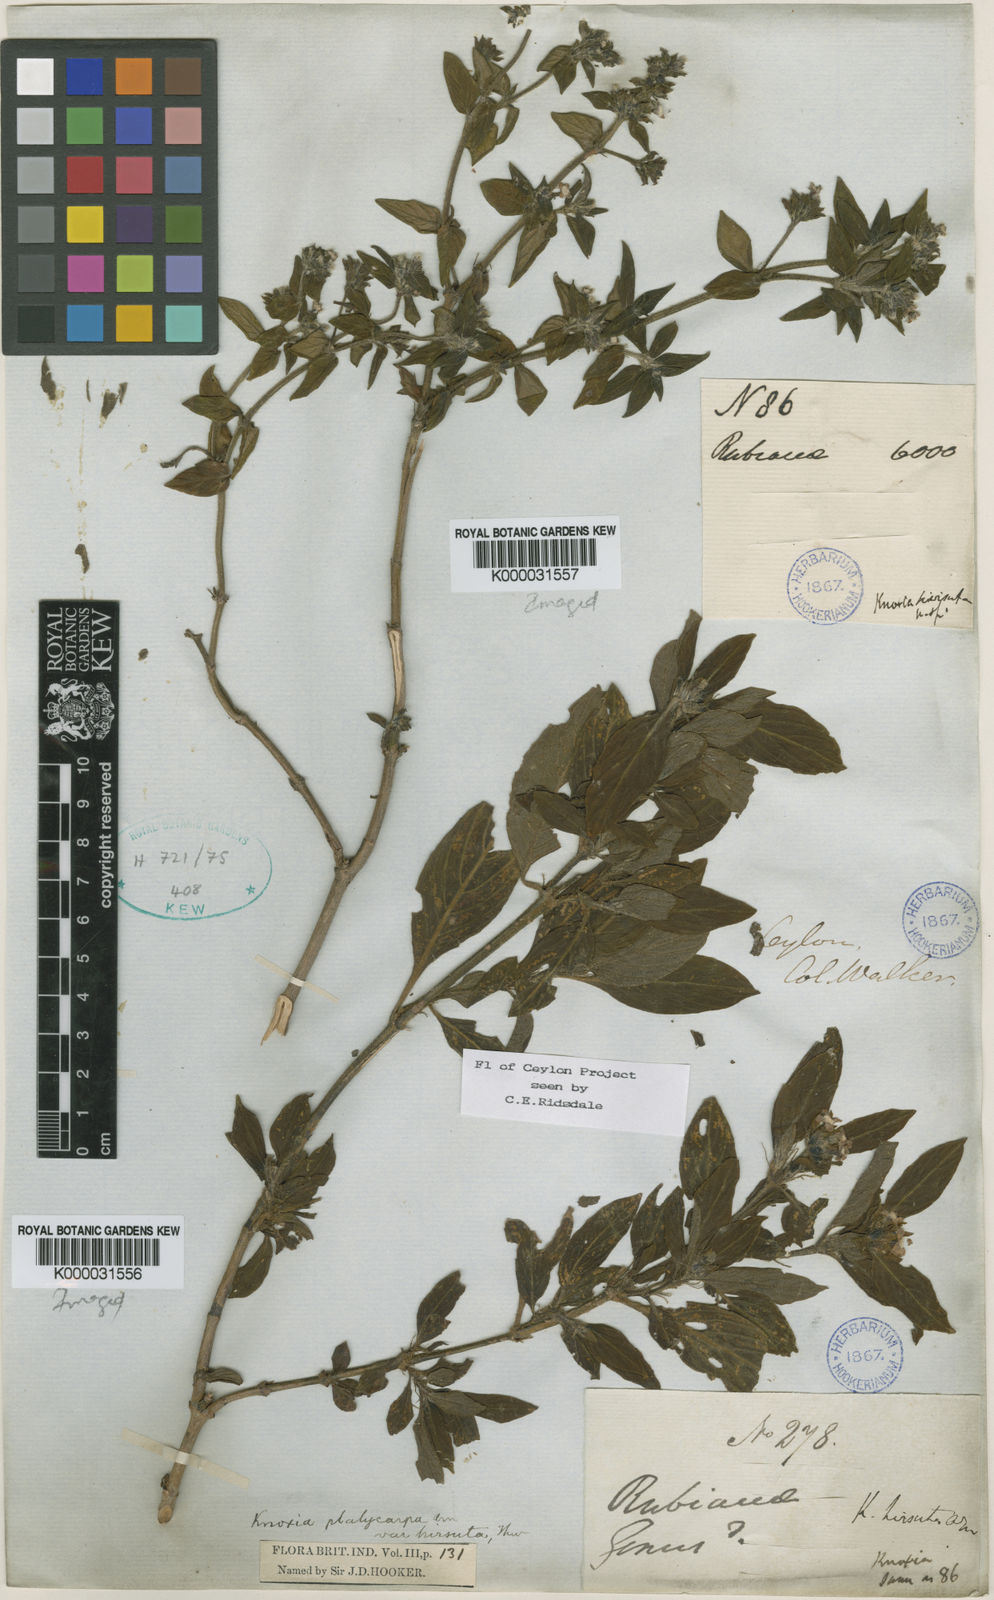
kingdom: Plantae
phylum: Tracheophyta
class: Magnoliopsida
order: Gentianales
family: Rubiaceae
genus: Knoxia
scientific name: Knoxia platycarpa
